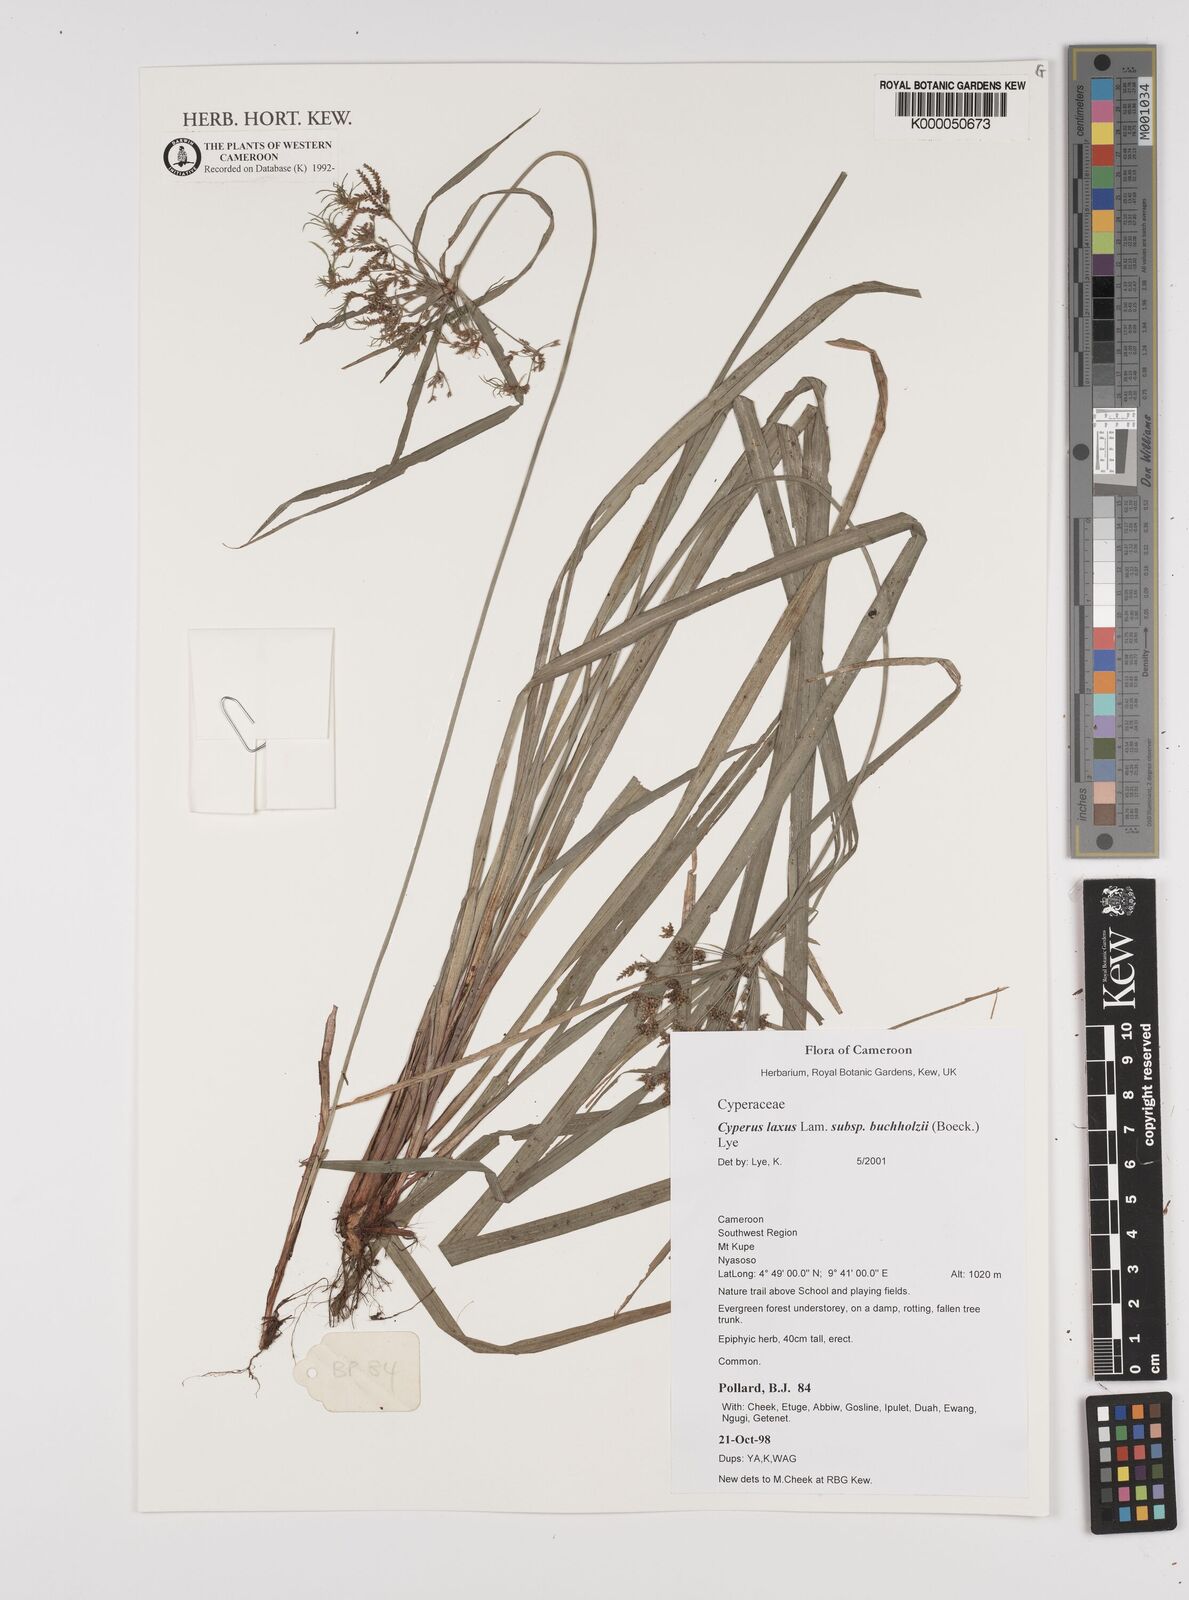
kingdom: Plantae
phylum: Tracheophyta
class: Liliopsida
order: Poales
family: Cyperaceae
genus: Cyperus
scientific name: Cyperus buchholzii
